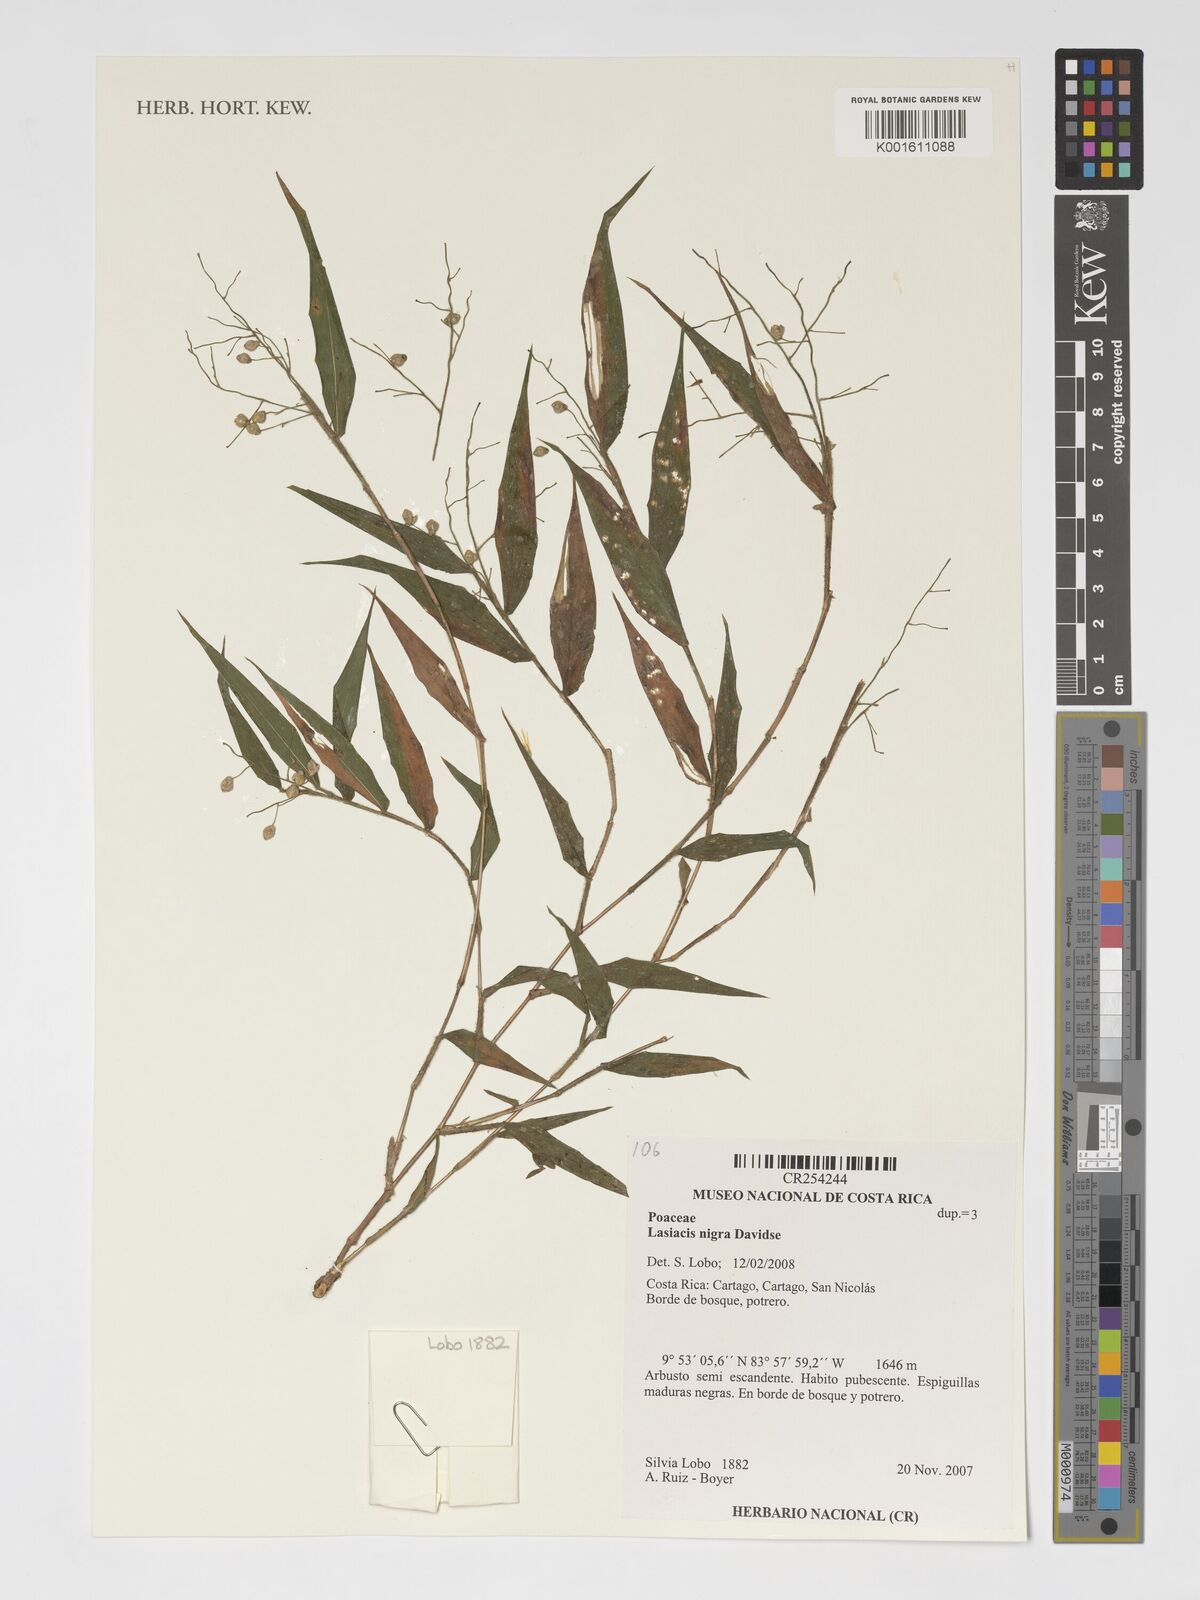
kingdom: Plantae
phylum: Tracheophyta
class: Liliopsida
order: Poales
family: Poaceae
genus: Lasiacis
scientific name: Lasiacis nigra
